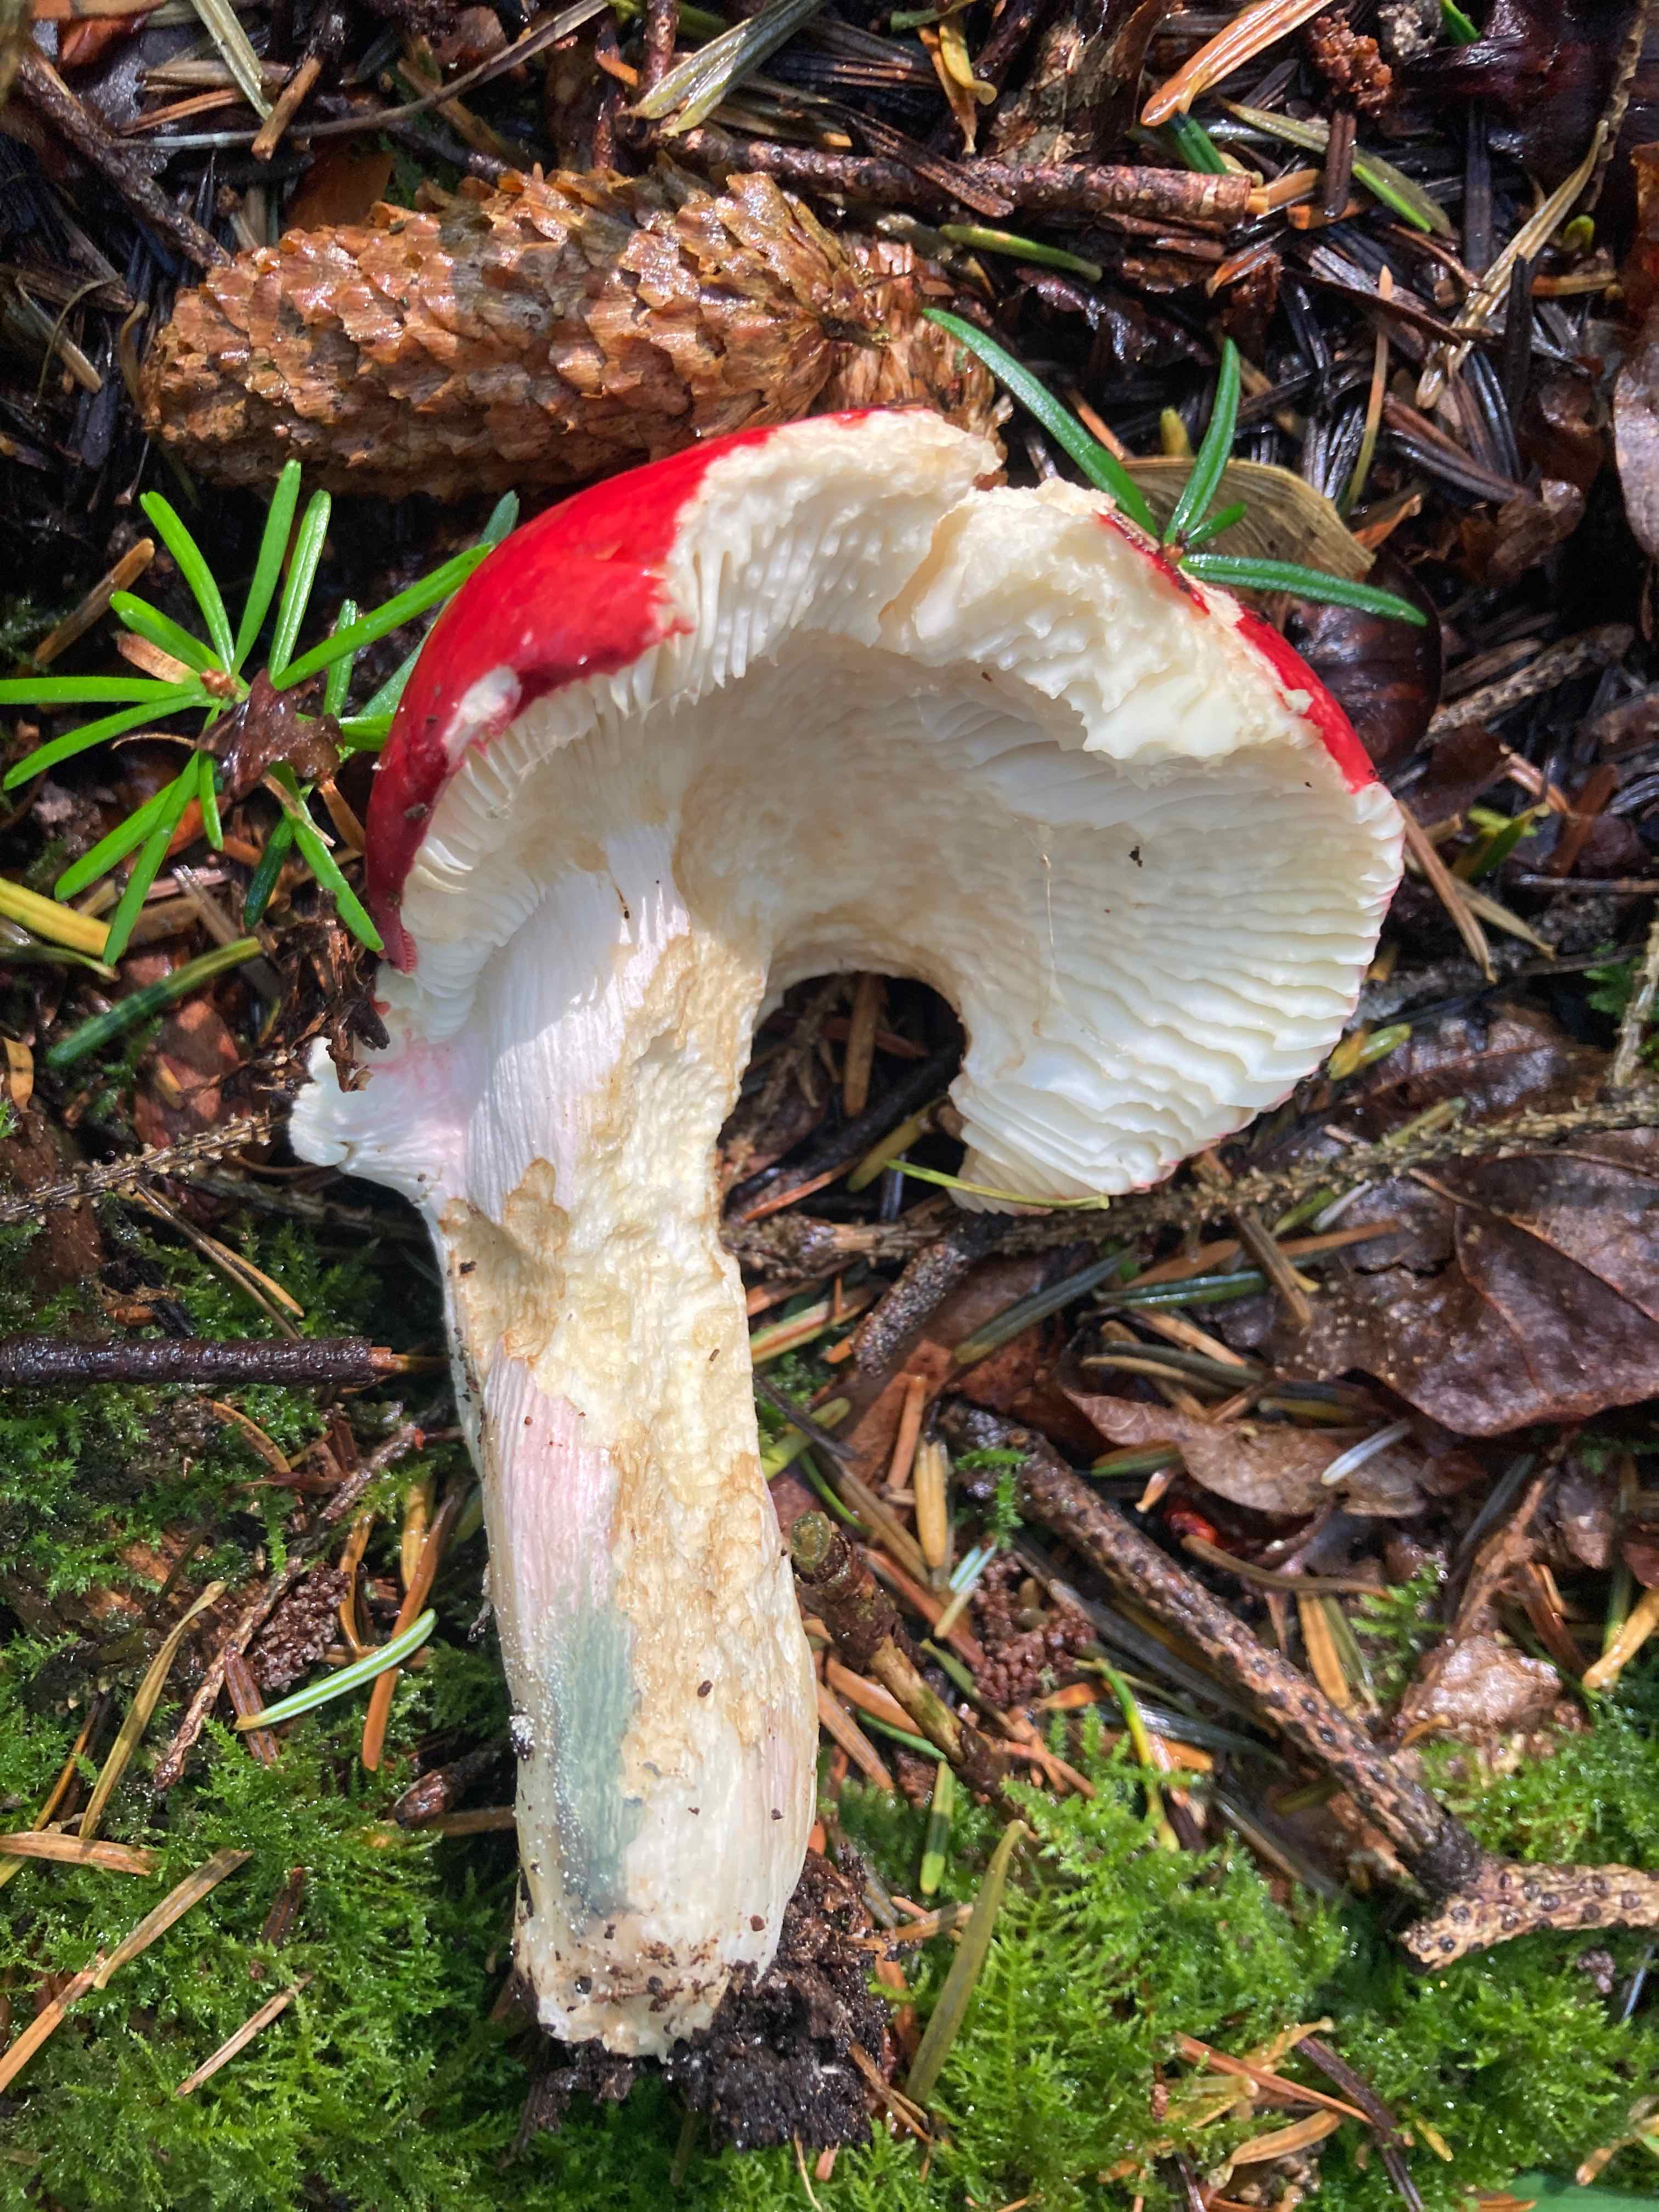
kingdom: Fungi
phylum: Basidiomycota
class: Agaricomycetes
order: Russulales
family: Russulaceae
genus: Russula
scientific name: Russula xerampelina
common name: hummer-skørhat
